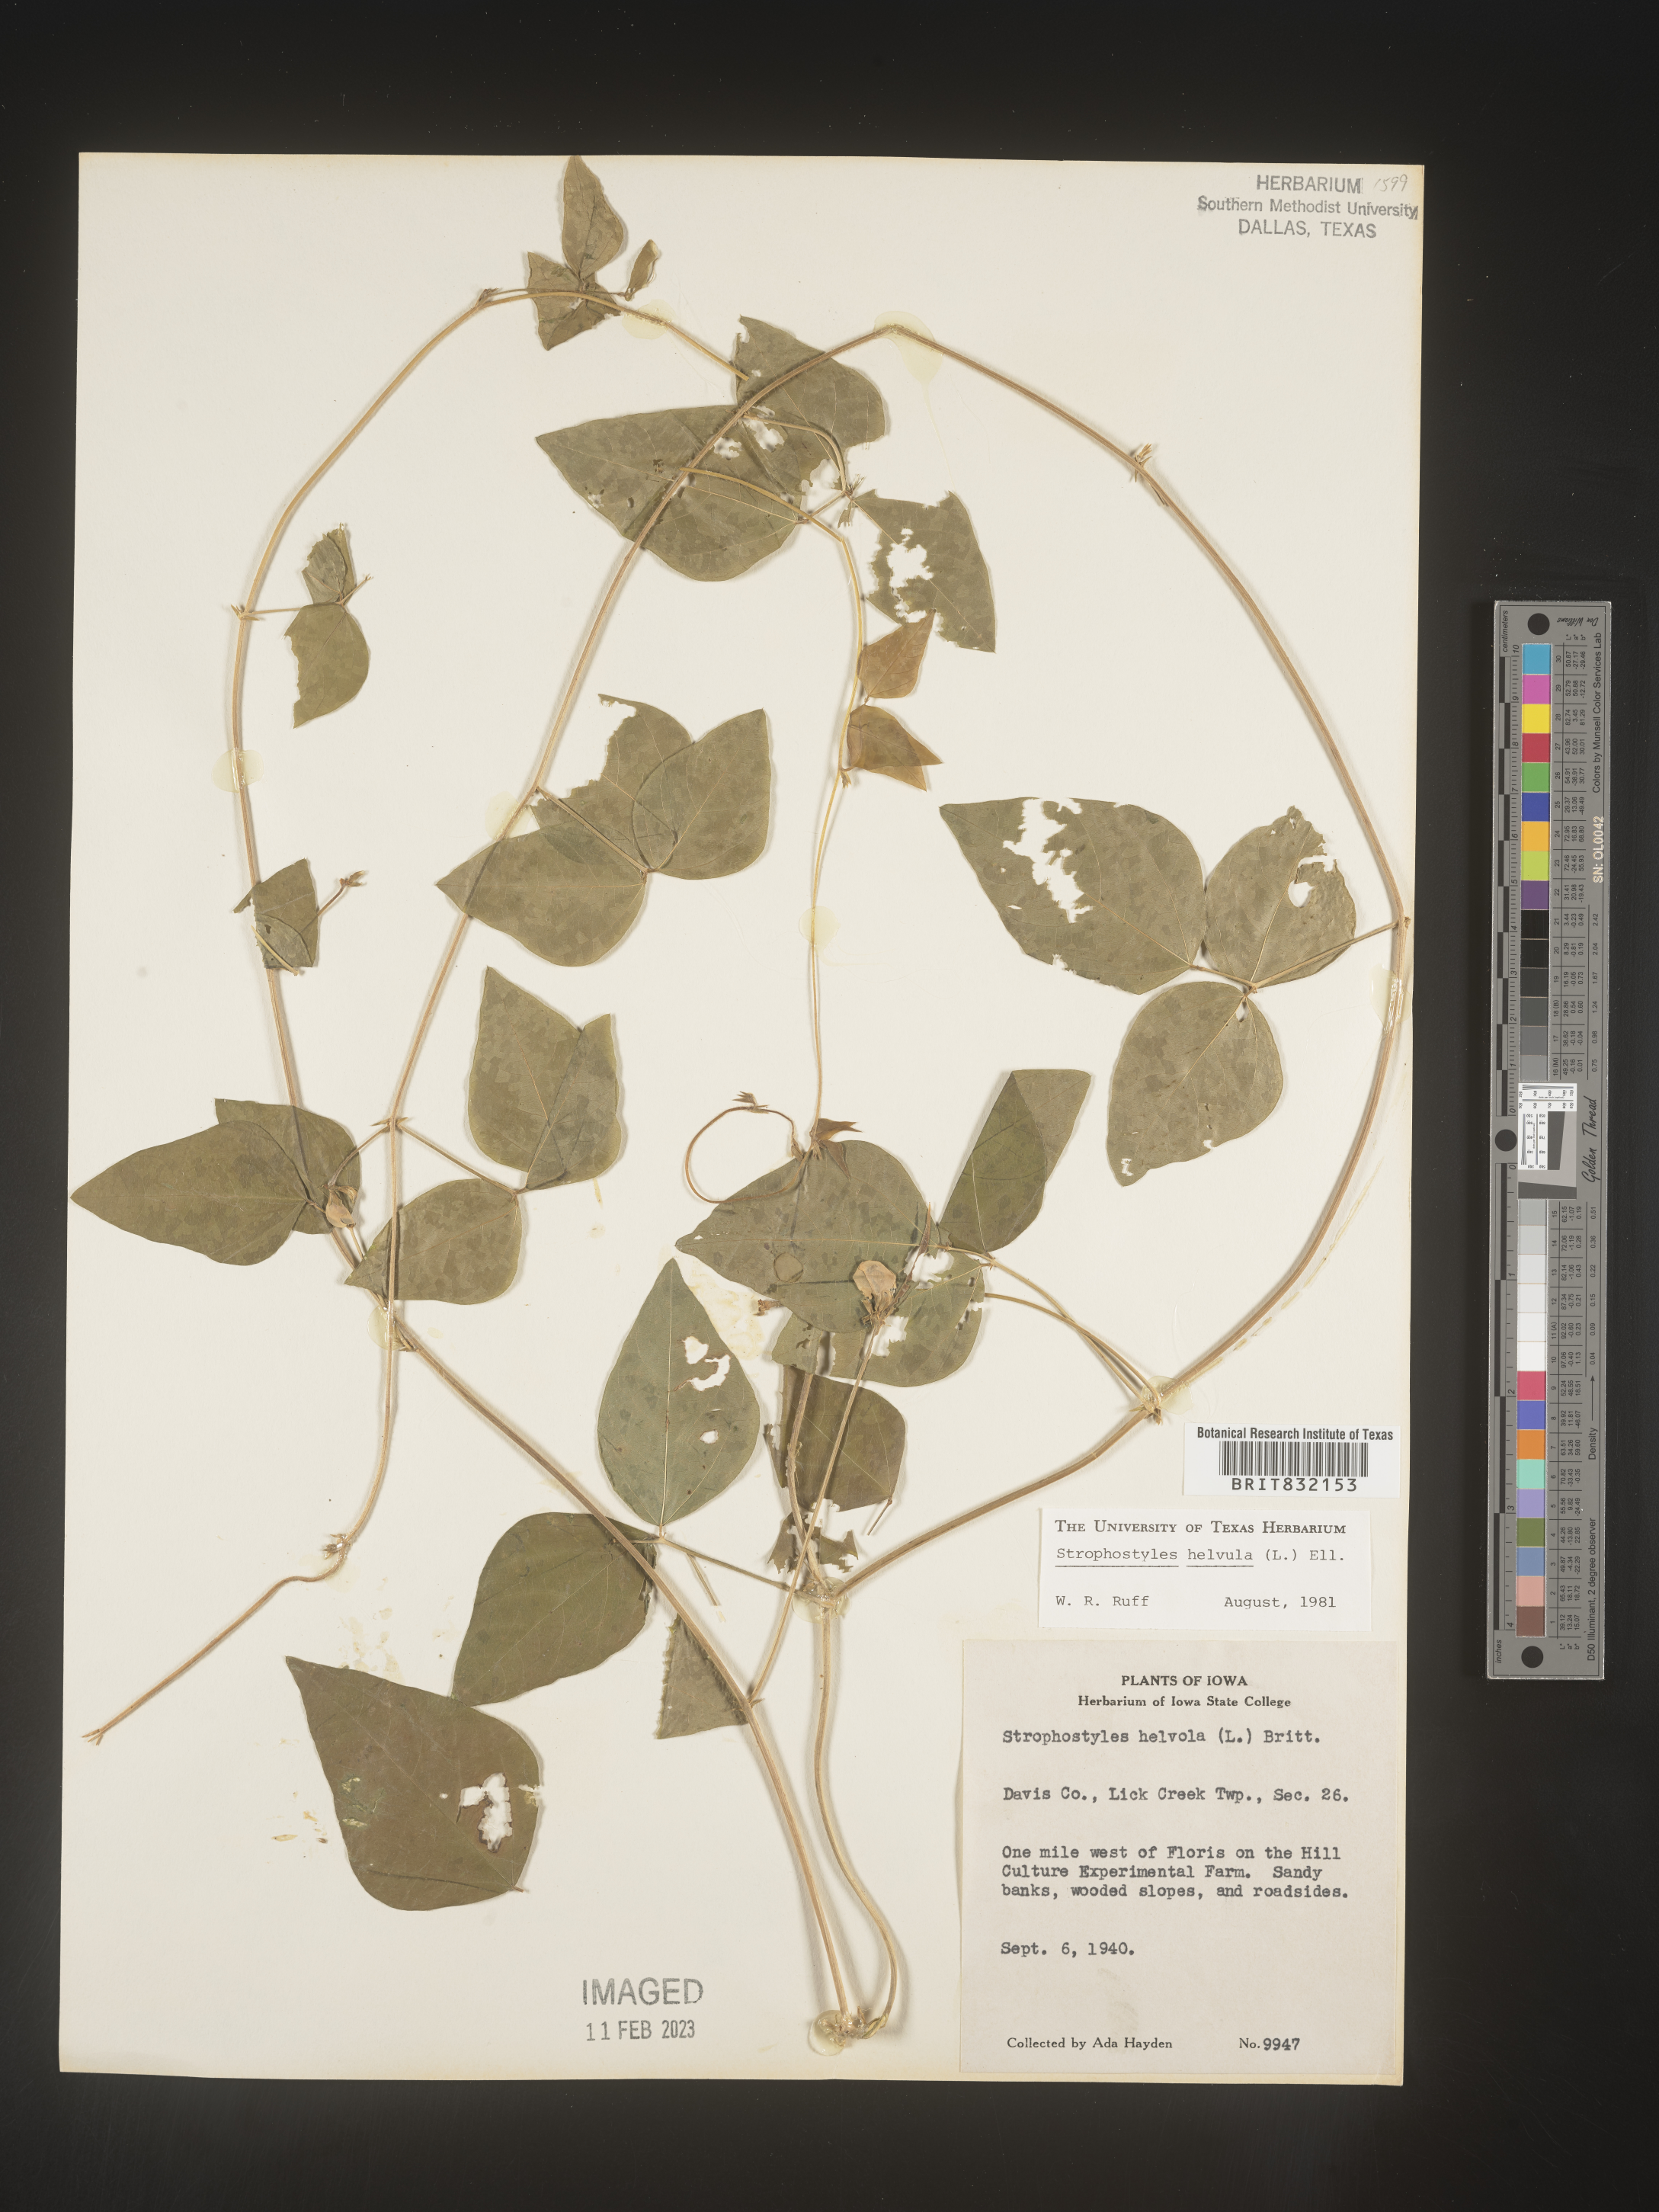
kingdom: Plantae
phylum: Tracheophyta
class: Magnoliopsida
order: Fabales
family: Fabaceae
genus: Strophostyles
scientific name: Strophostyles helvola
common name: Trailing wild bean
